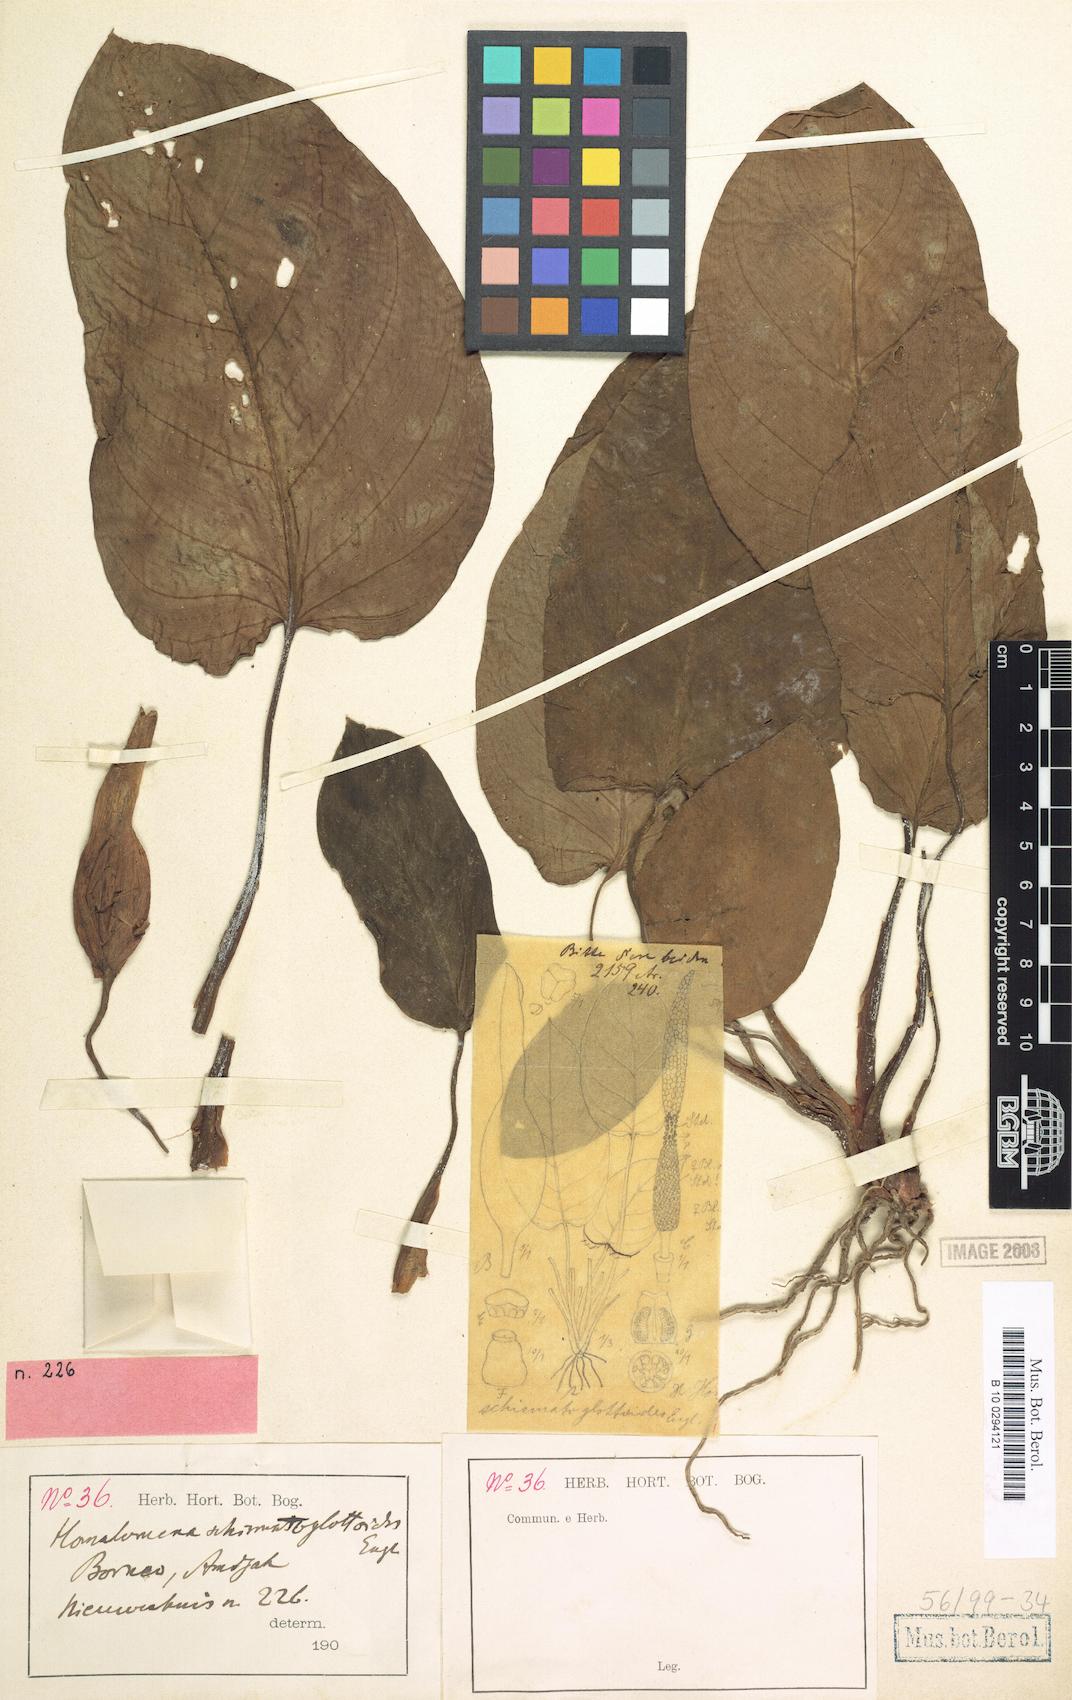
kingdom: Plantae
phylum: Tracheophyta
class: Liliopsida
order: Alismatales
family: Araceae
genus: Homalomena
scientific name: Homalomena insignis
